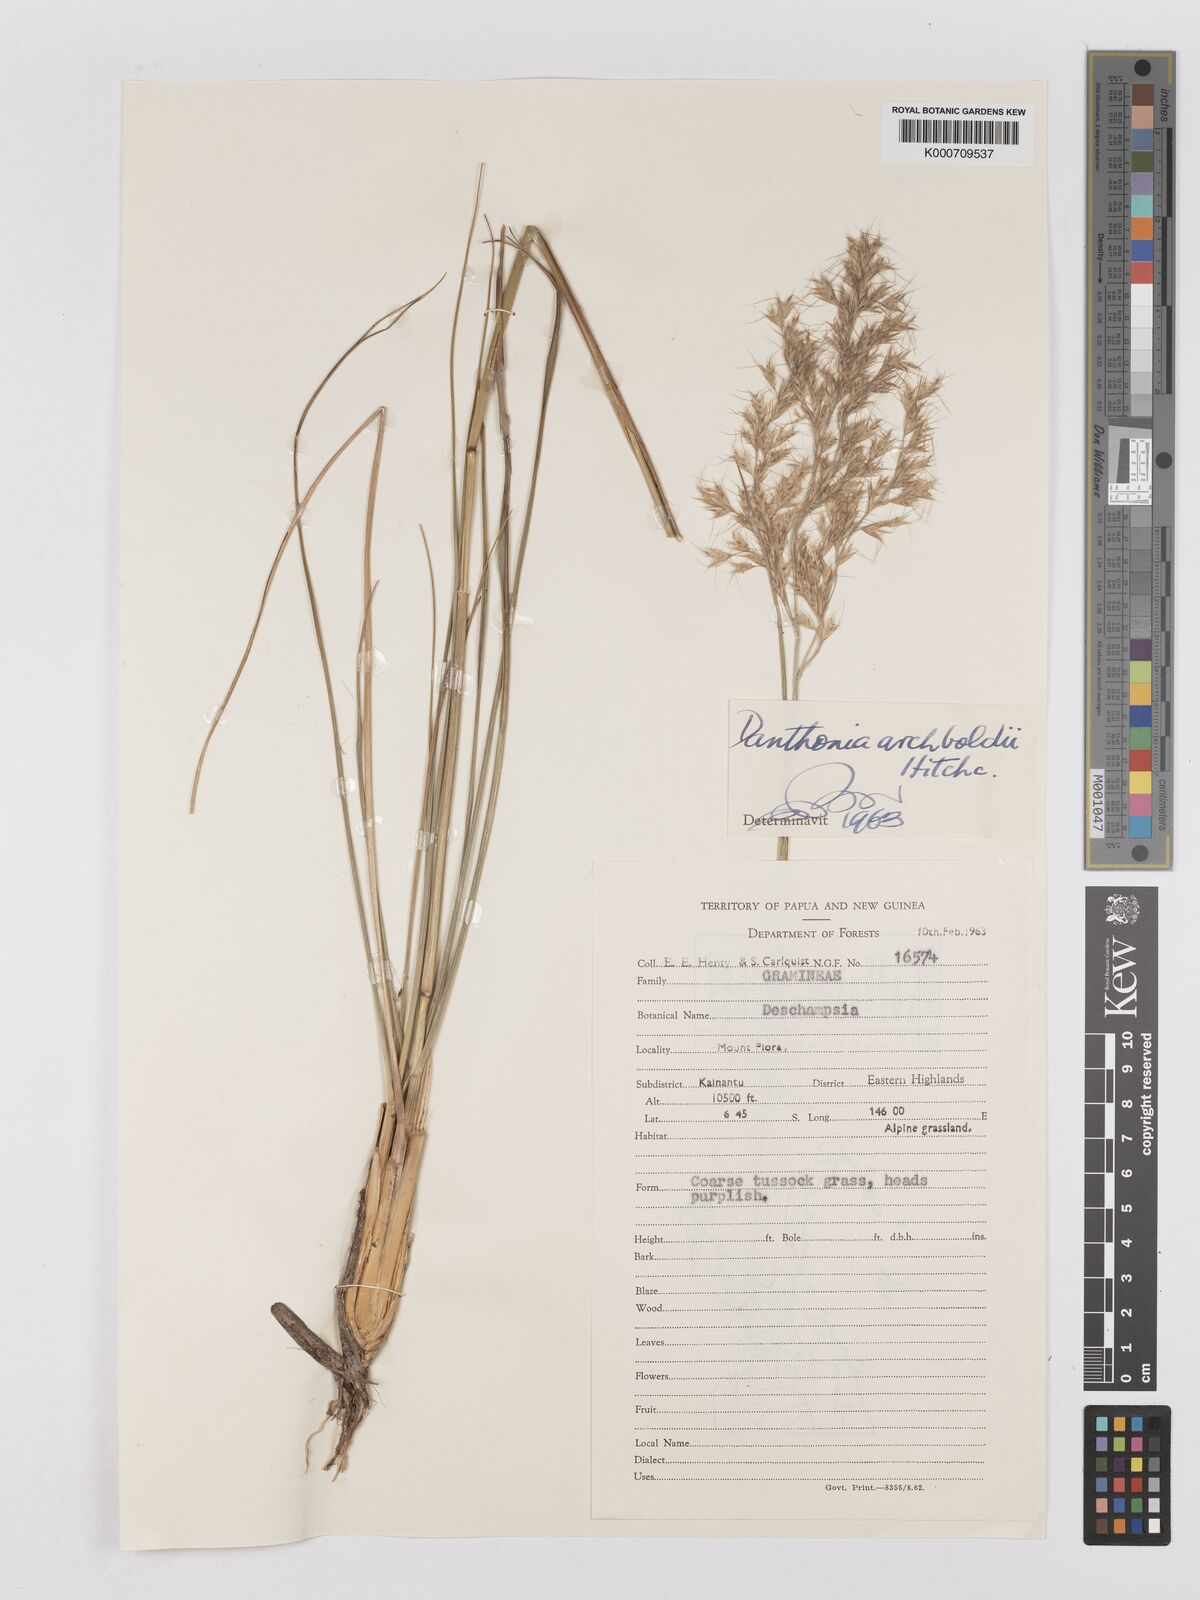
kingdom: Plantae
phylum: Tracheophyta
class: Liliopsida
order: Poales
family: Poaceae
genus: Chimaerochloa
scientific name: Chimaerochloa archboldii
